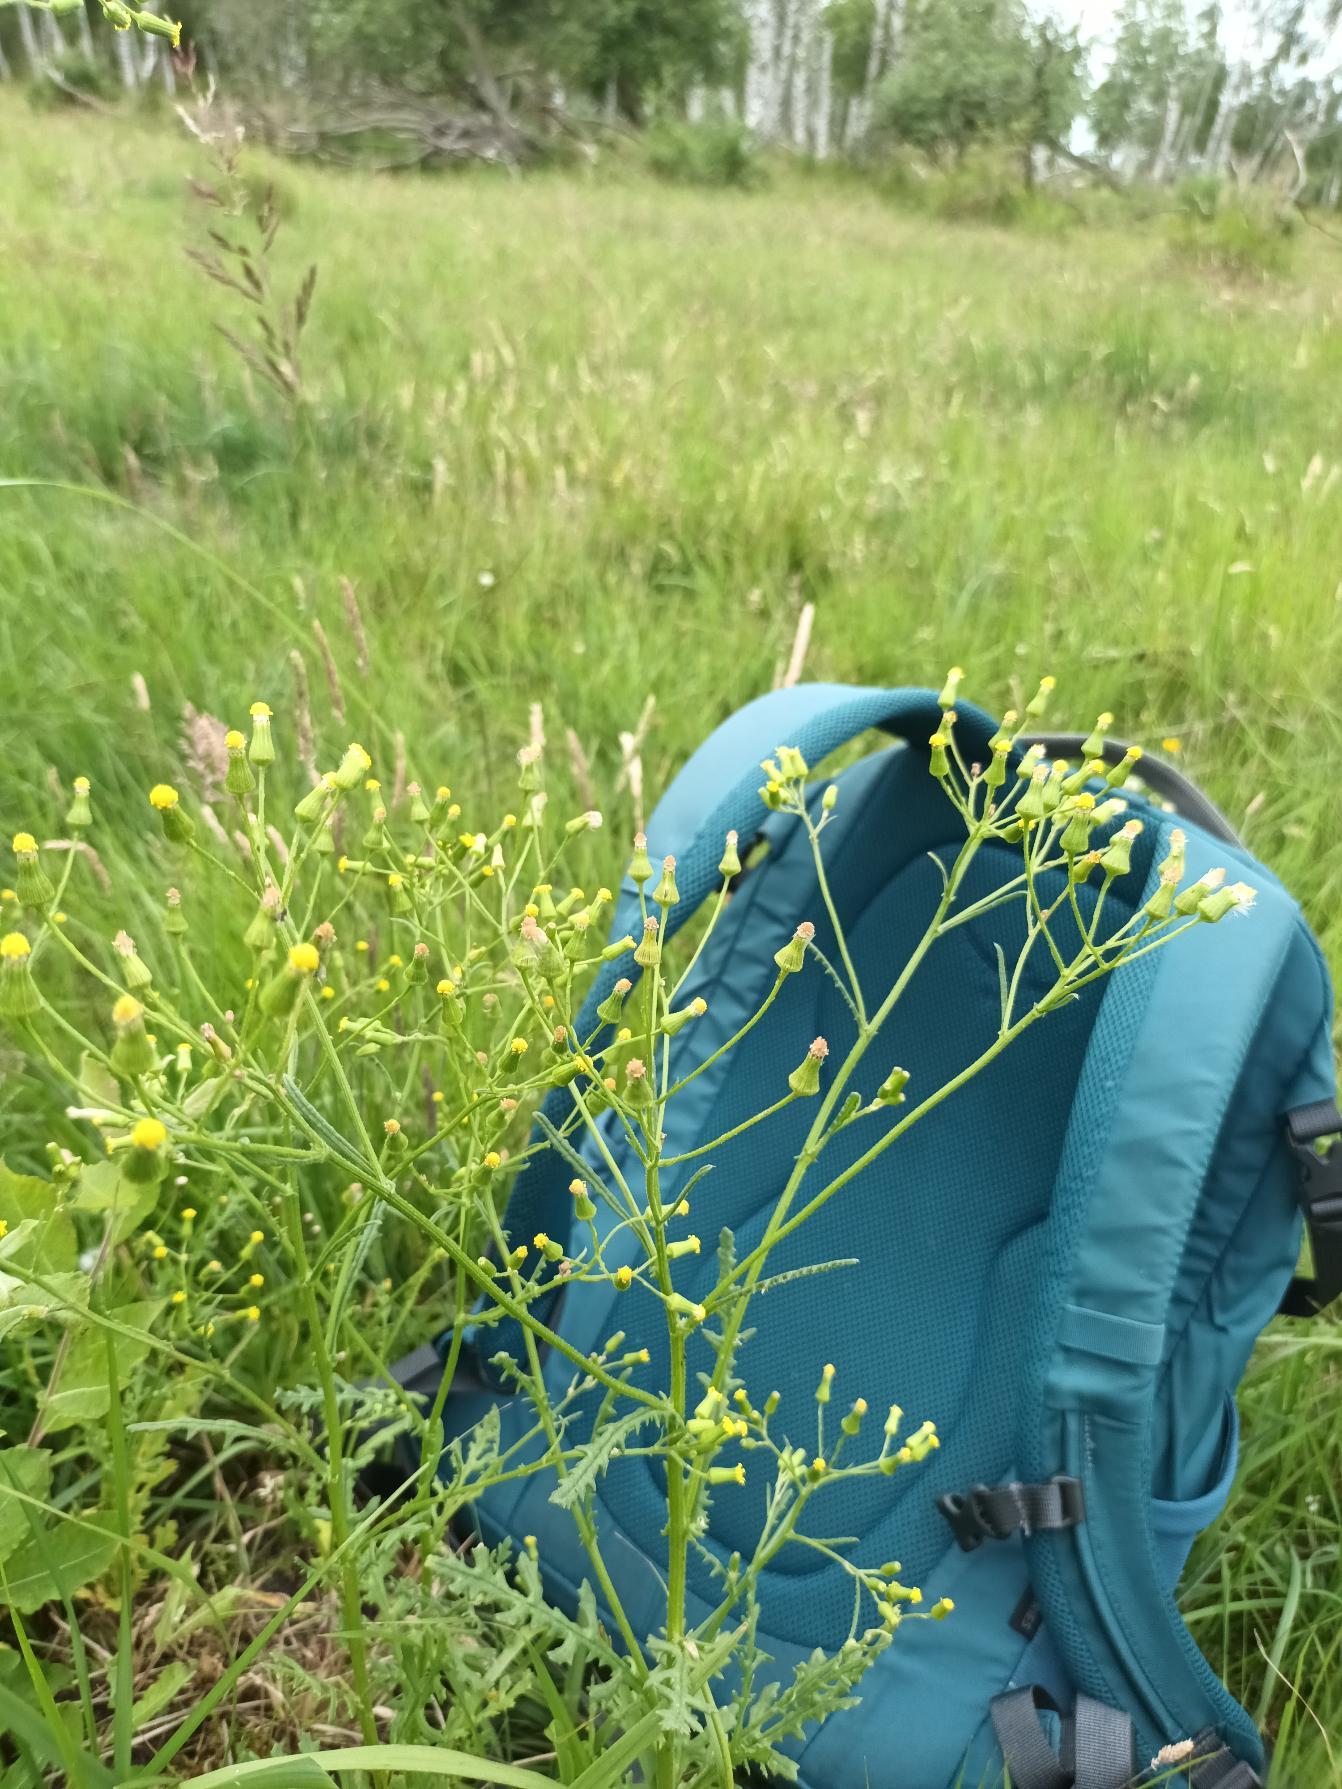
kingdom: Plantae
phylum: Tracheophyta
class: Magnoliopsida
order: Asterales
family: Asteraceae
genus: Senecio
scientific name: Senecio sylvaticus
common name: Skov-brandbæger
